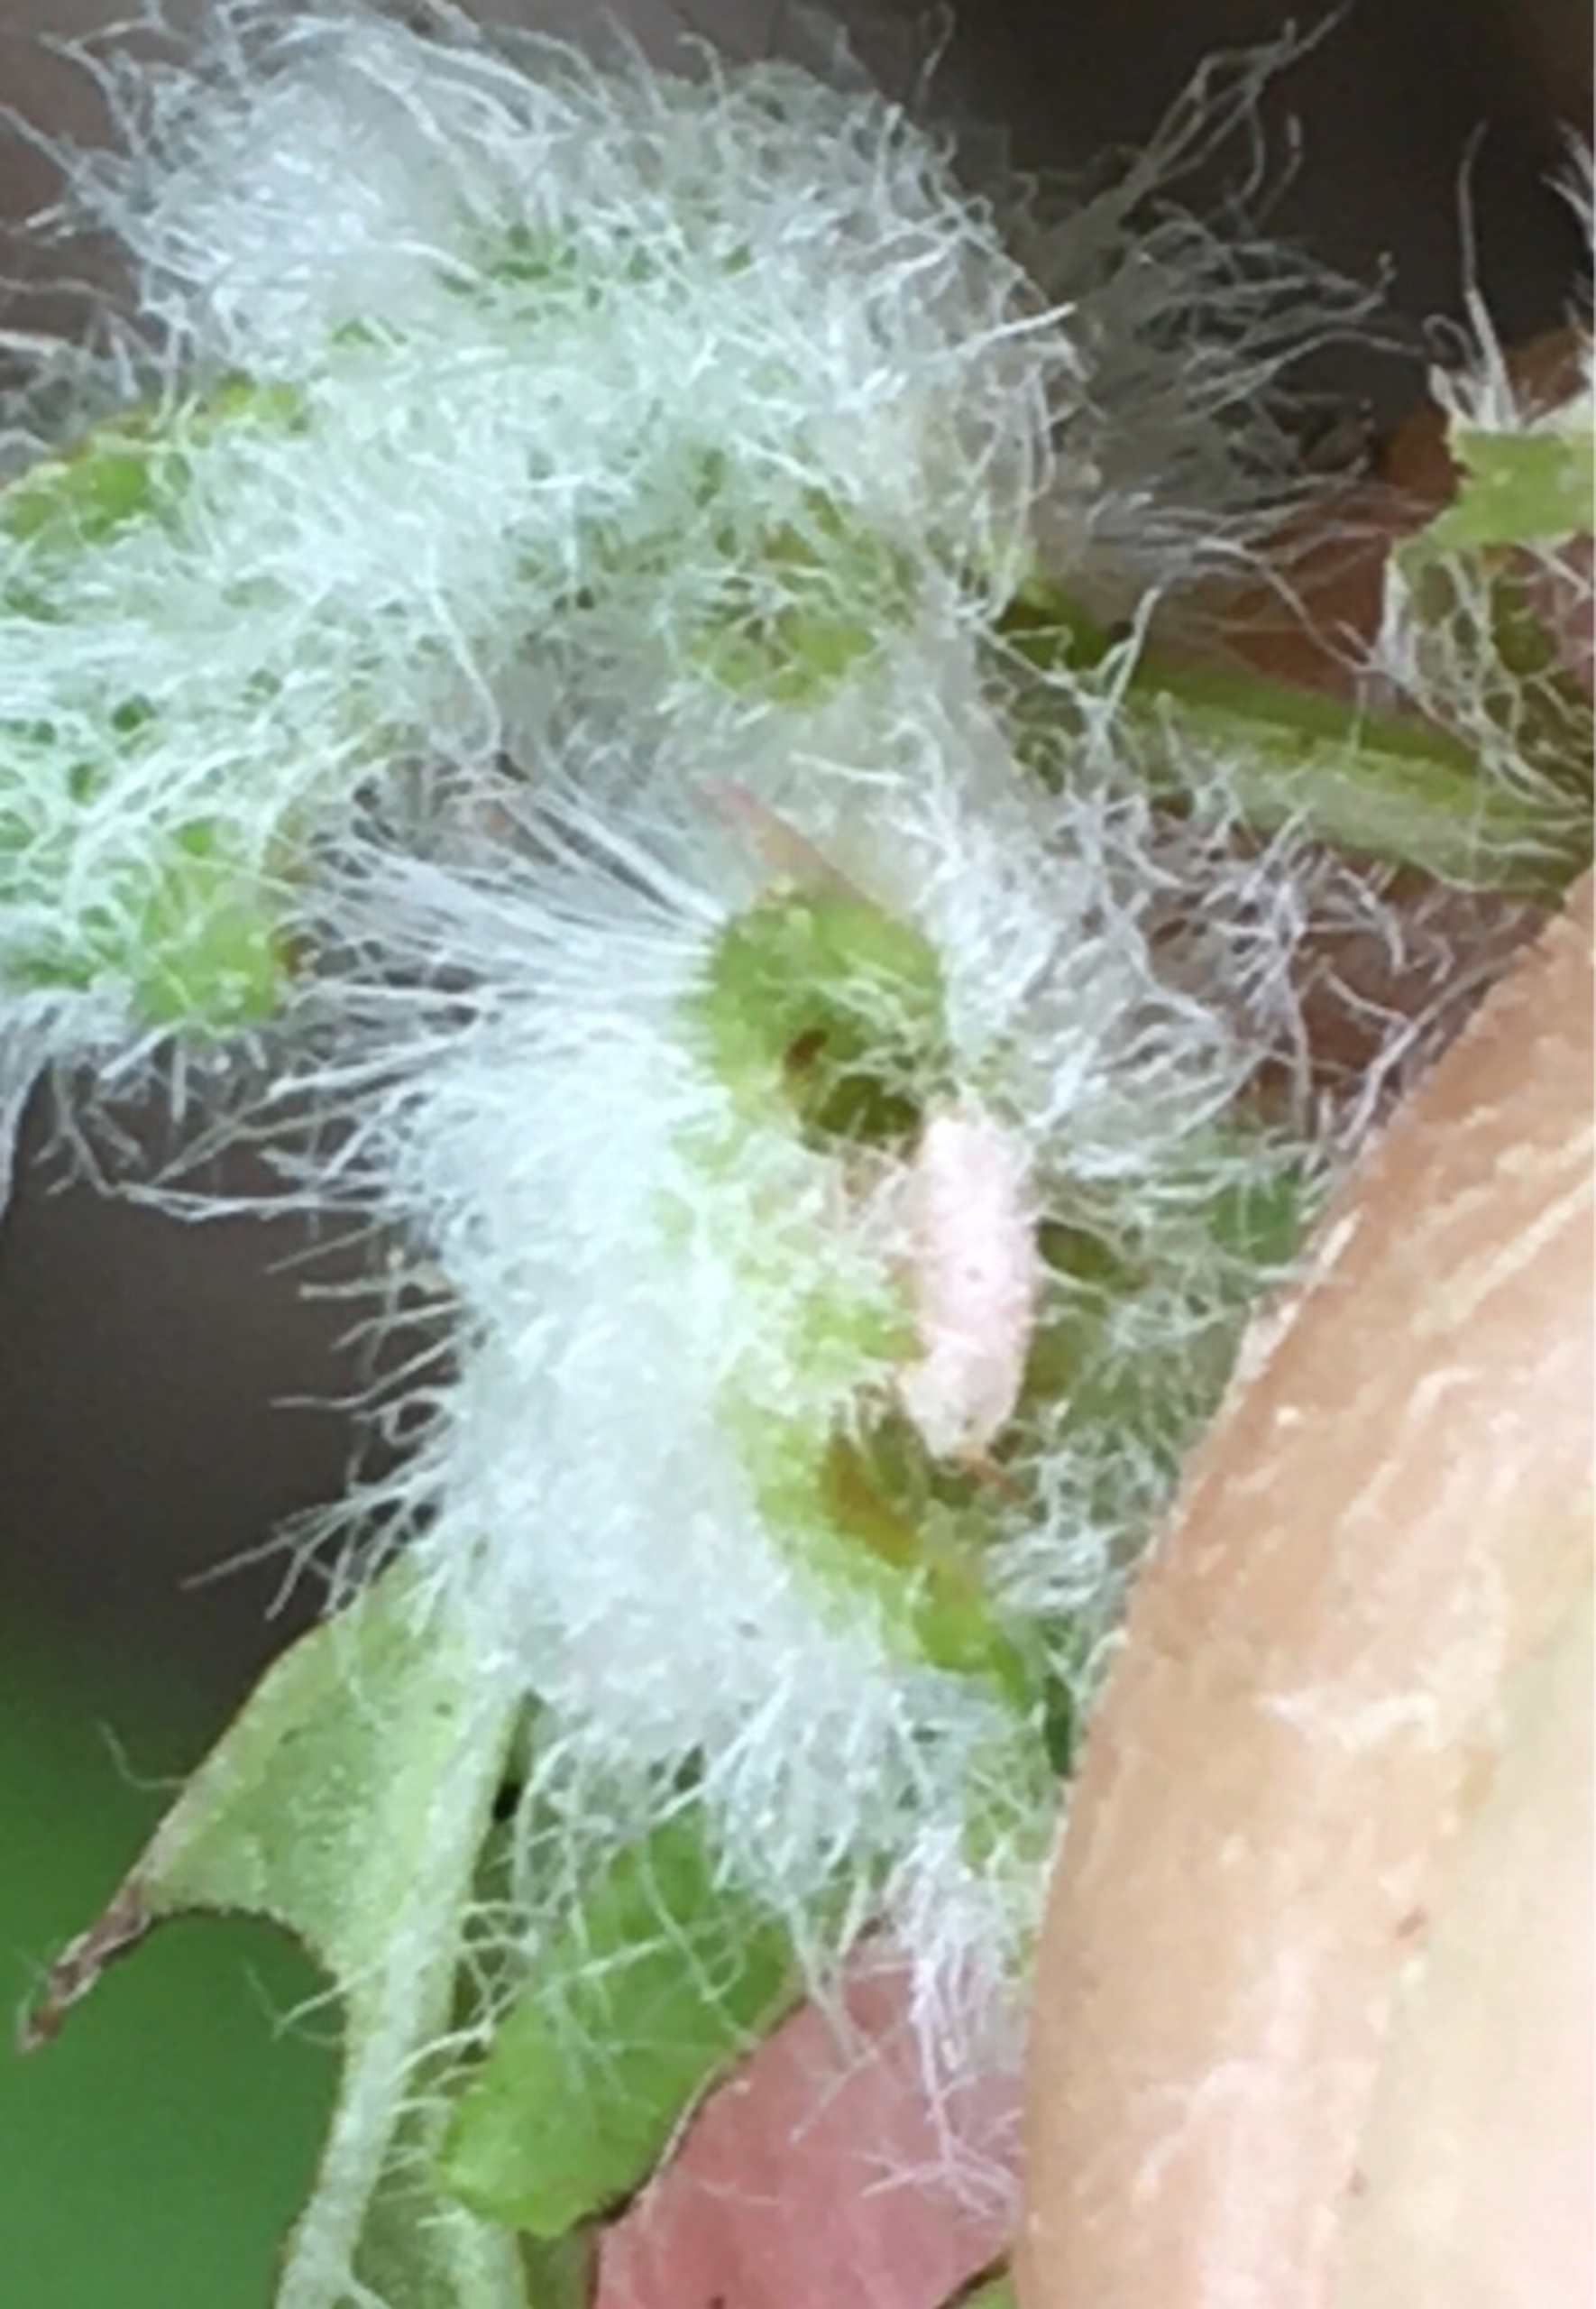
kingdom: Animalia
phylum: Arthropoda
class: Insecta
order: Diptera
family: Cecidomyiidae
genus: Jaapiella
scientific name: Jaapiella veronicae
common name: Ærenprisgalmyg
